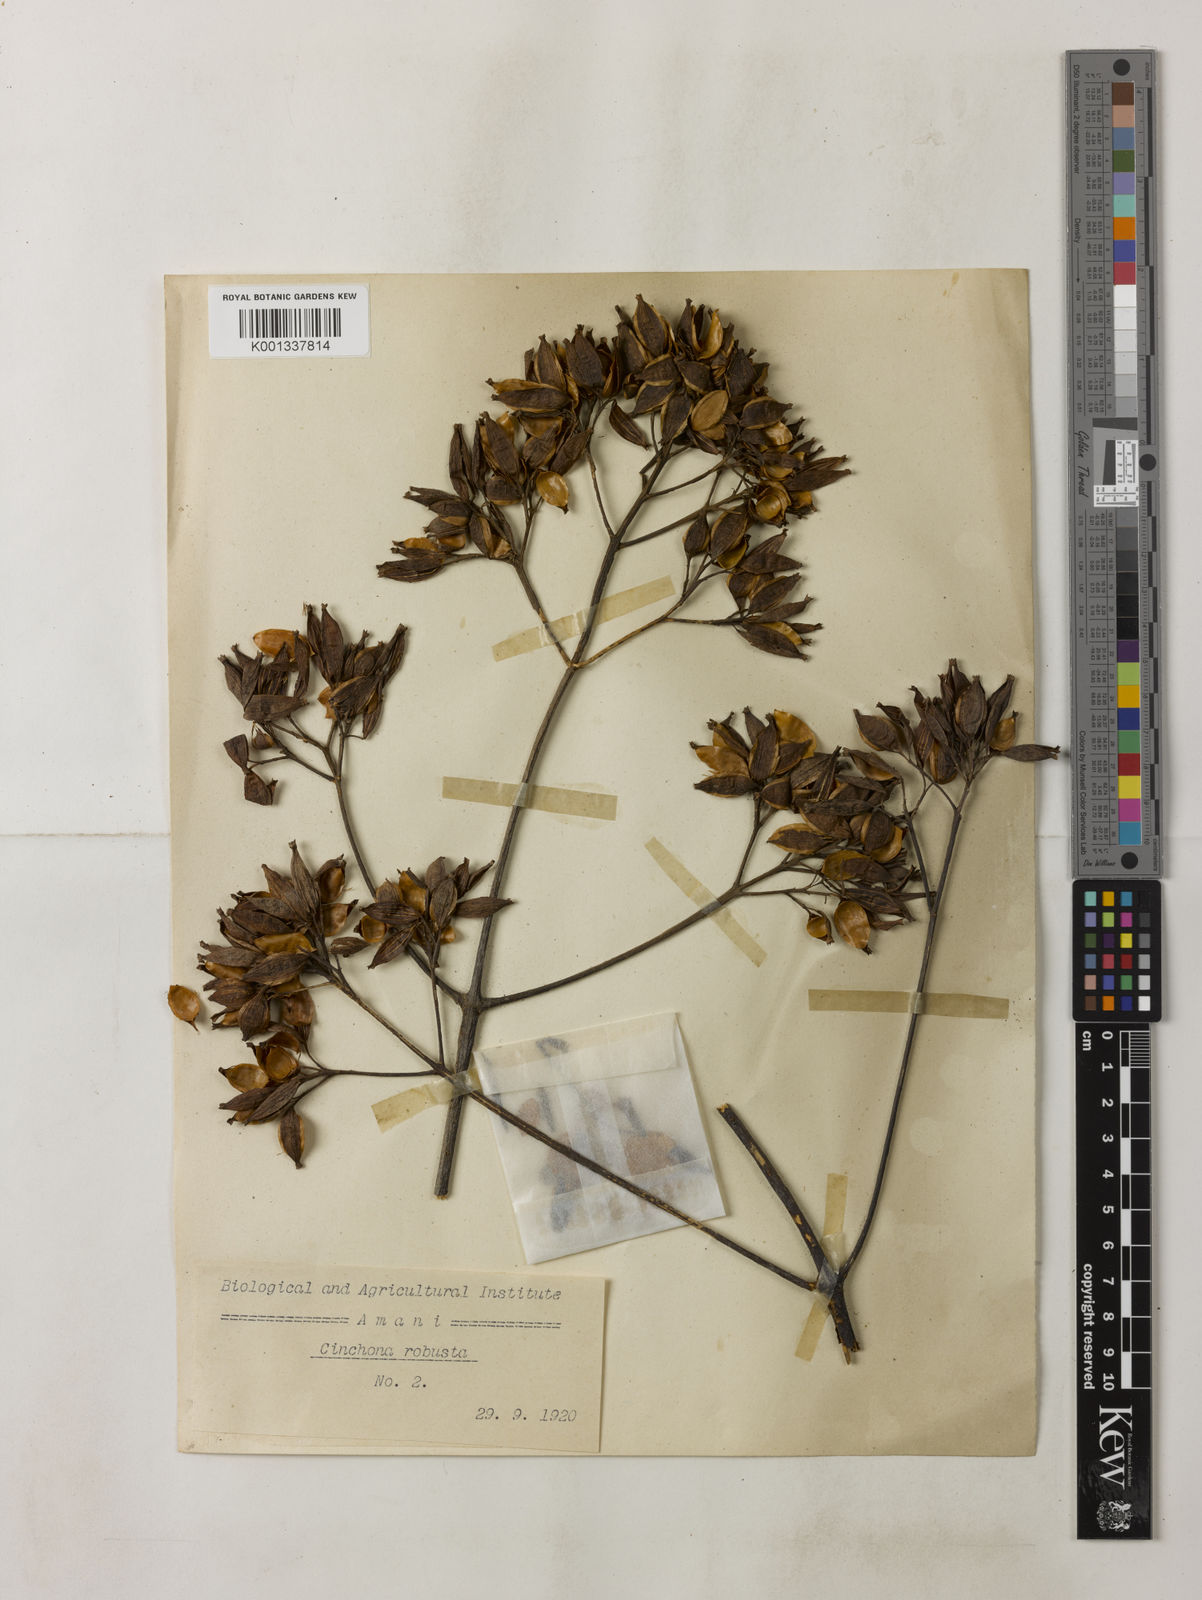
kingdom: Plantae
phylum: Tracheophyta
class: Magnoliopsida
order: Gentianales
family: Rubiaceae
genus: Cinchona
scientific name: Cinchona officinalis
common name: Lojabark
